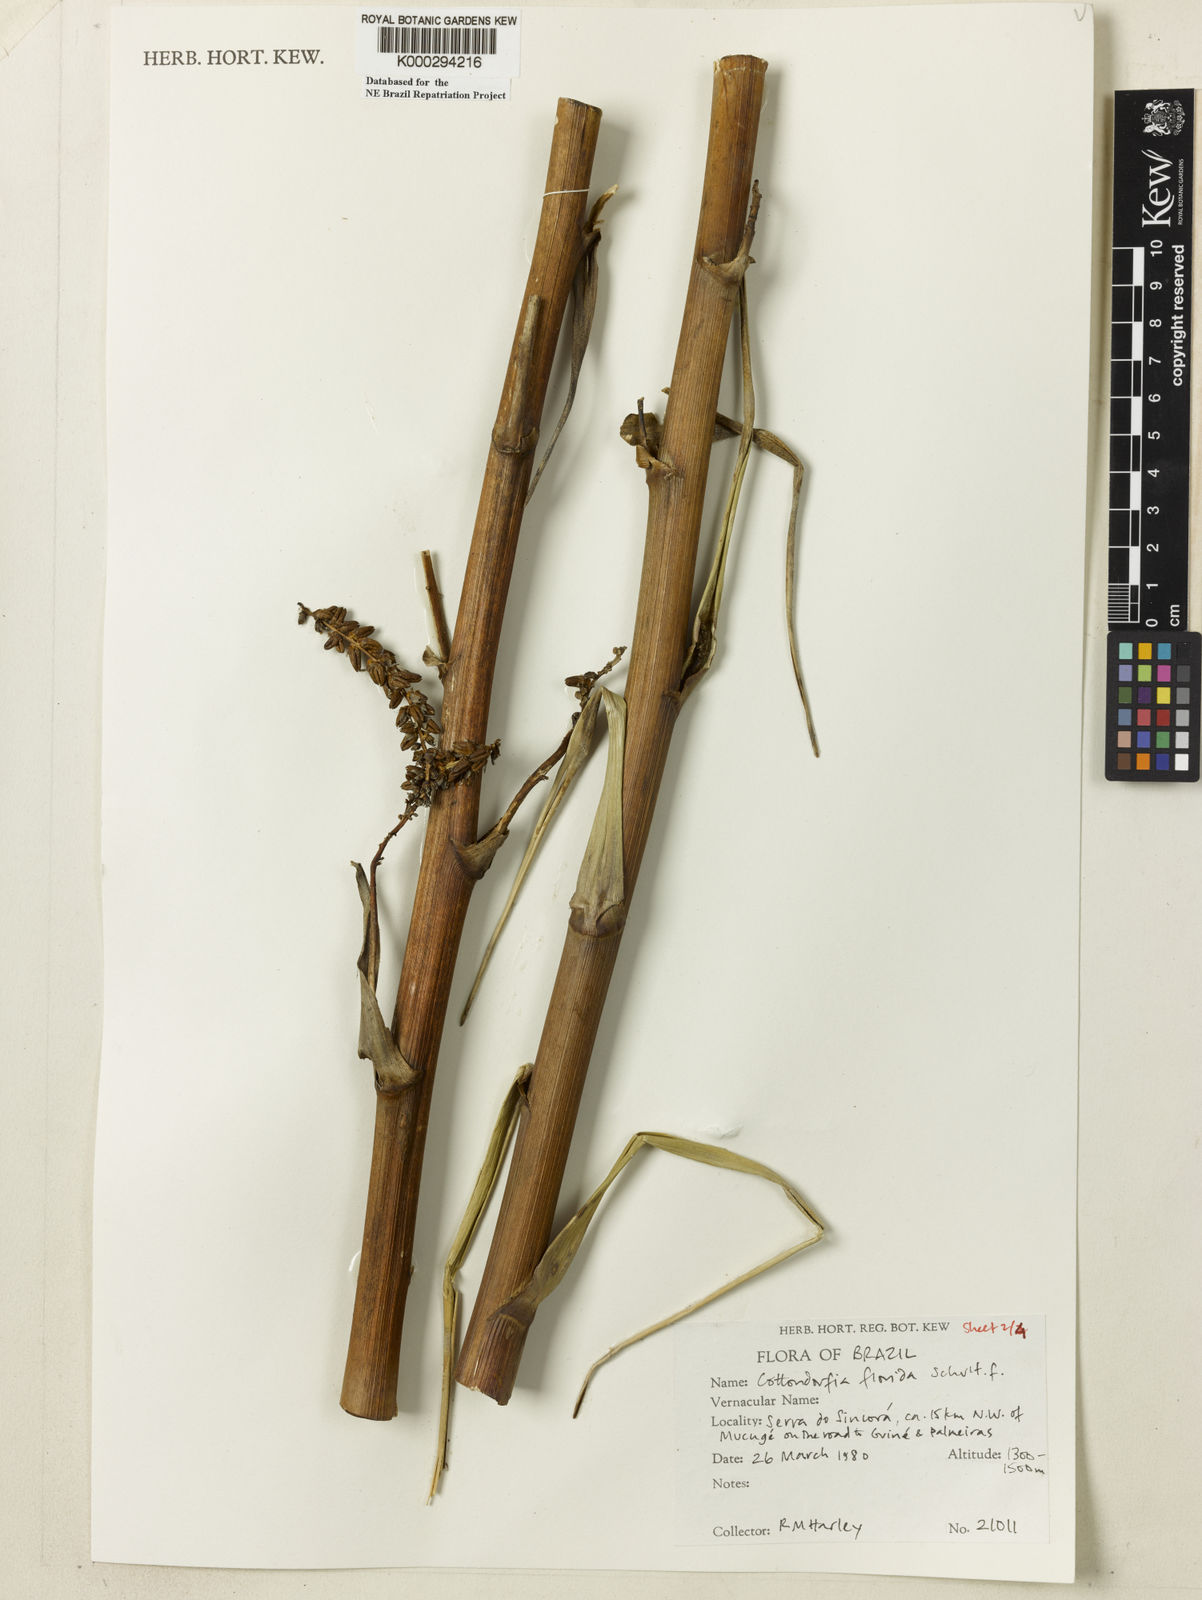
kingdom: Plantae
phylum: Tracheophyta
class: Liliopsida
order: Poales
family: Bromeliaceae
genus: Cottendorfia
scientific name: Cottendorfia florida
